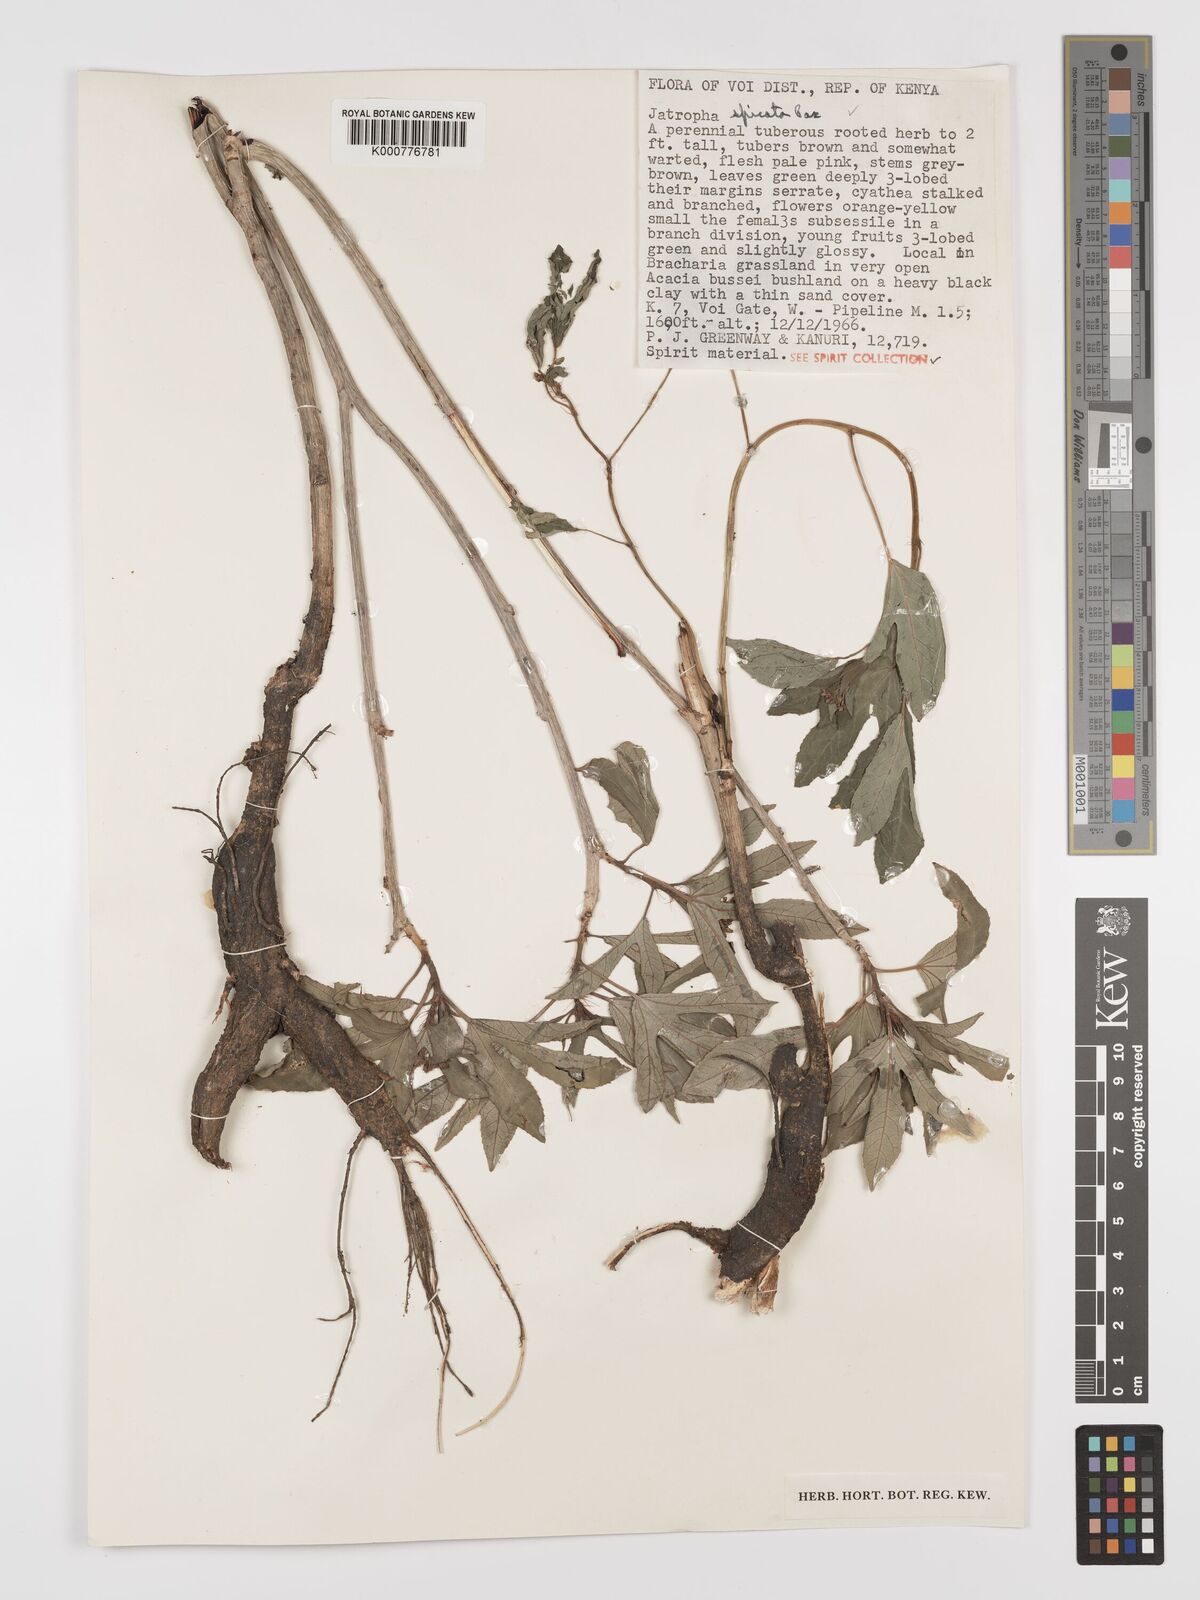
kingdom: Plantae
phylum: Tracheophyta
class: Magnoliopsida
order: Malpighiales
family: Euphorbiaceae
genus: Jatropha
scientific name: Jatropha spicata
